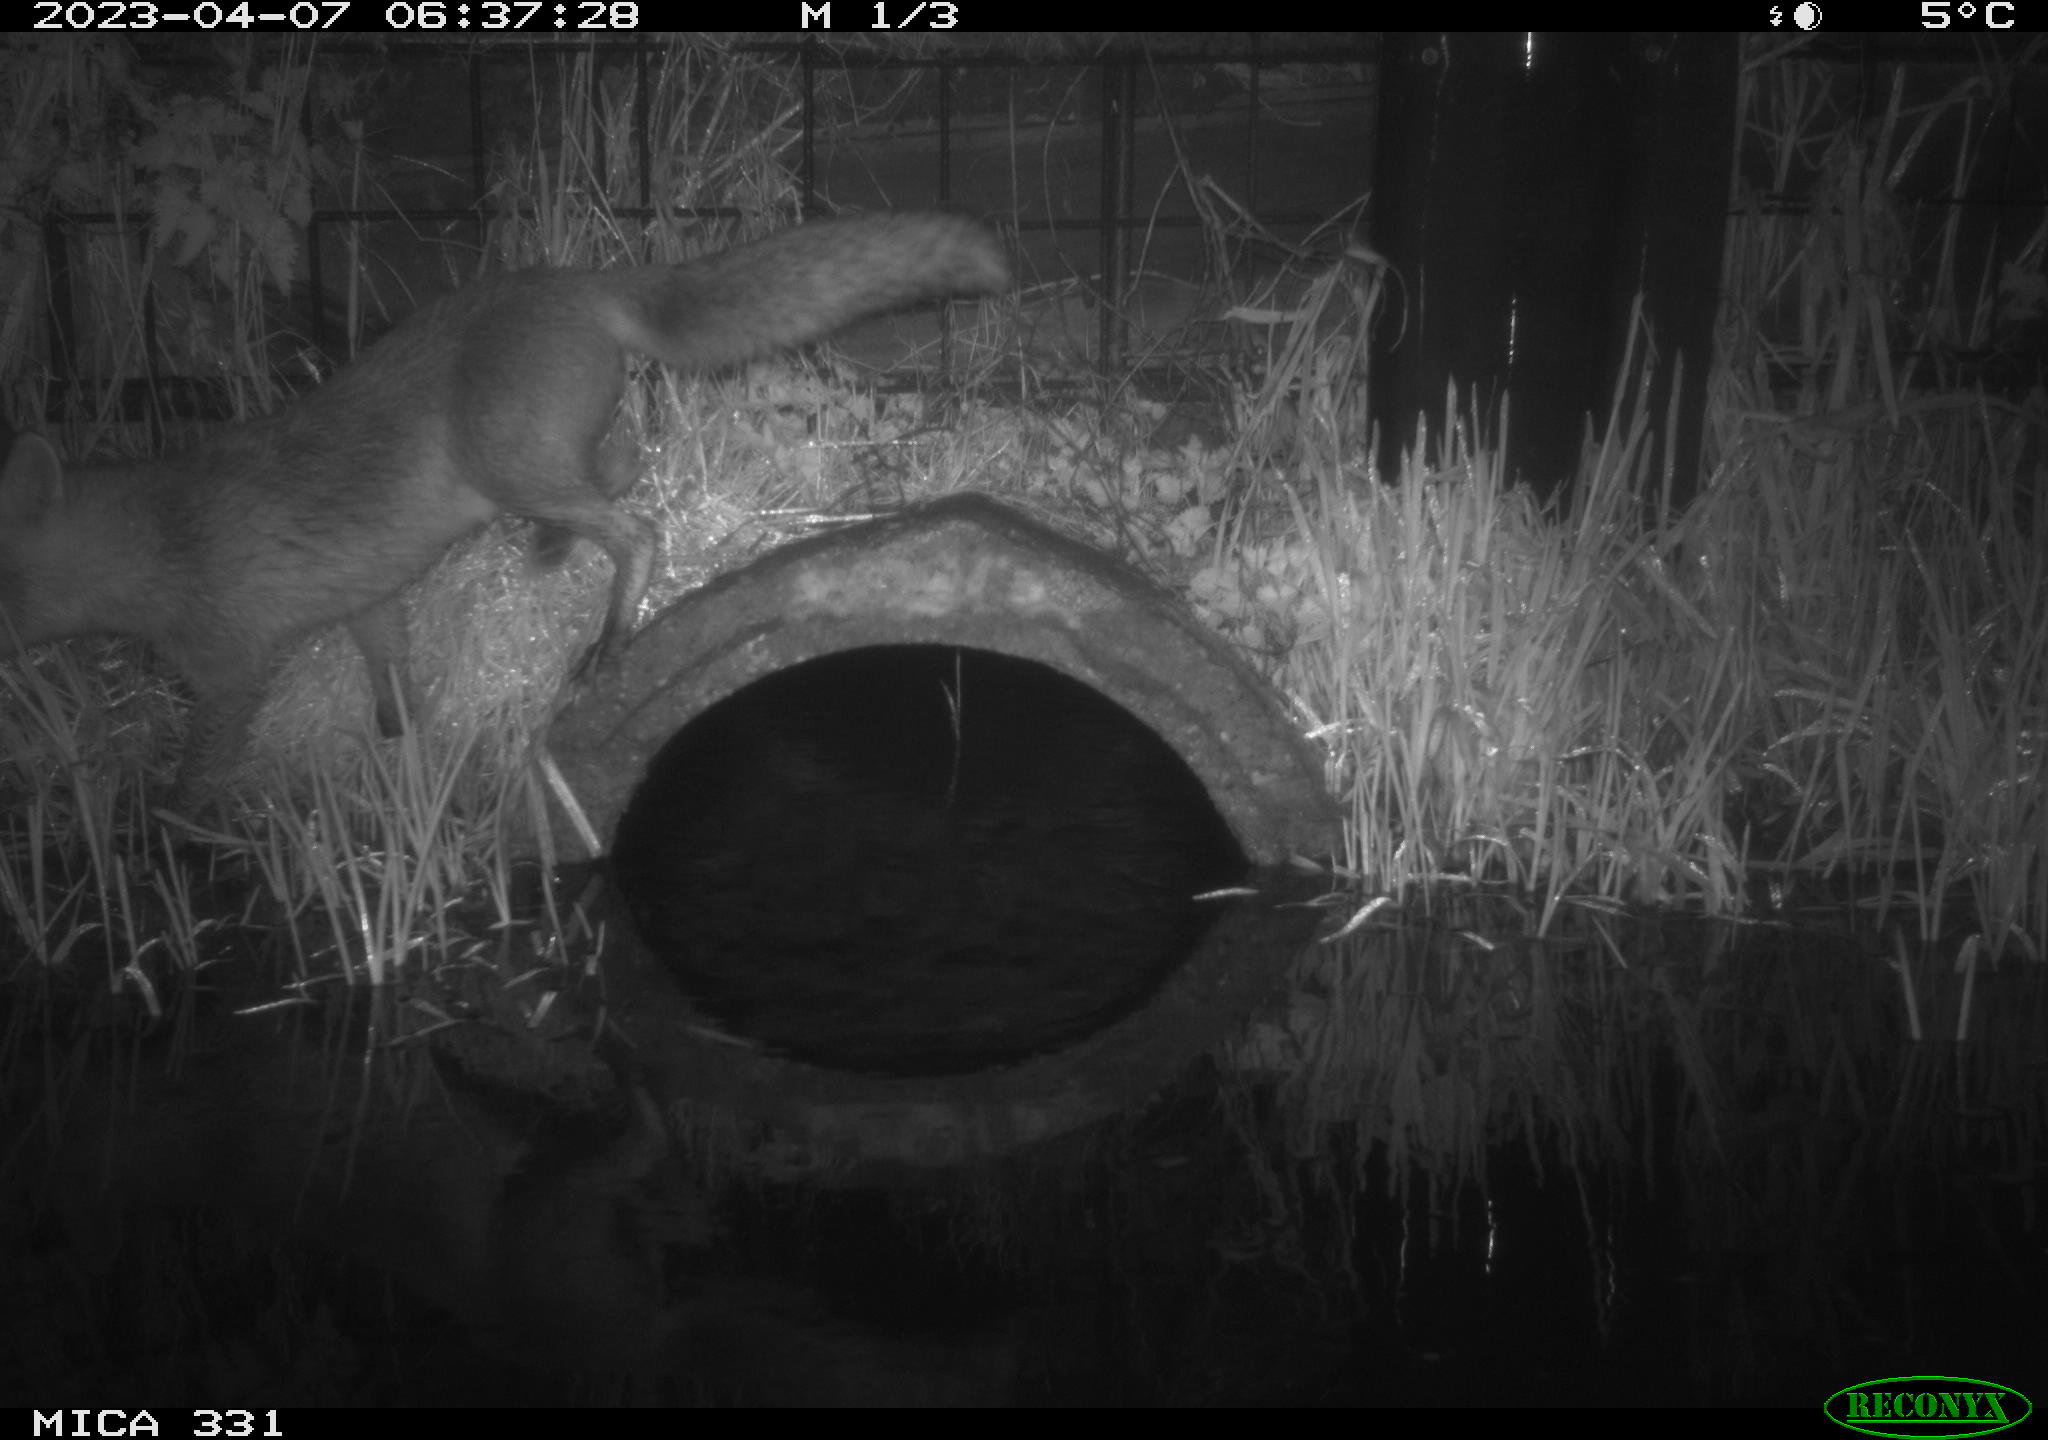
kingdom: Animalia
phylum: Chordata
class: Mammalia
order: Carnivora
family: Canidae
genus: Vulpes
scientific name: Vulpes vulpes
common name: Red fox
